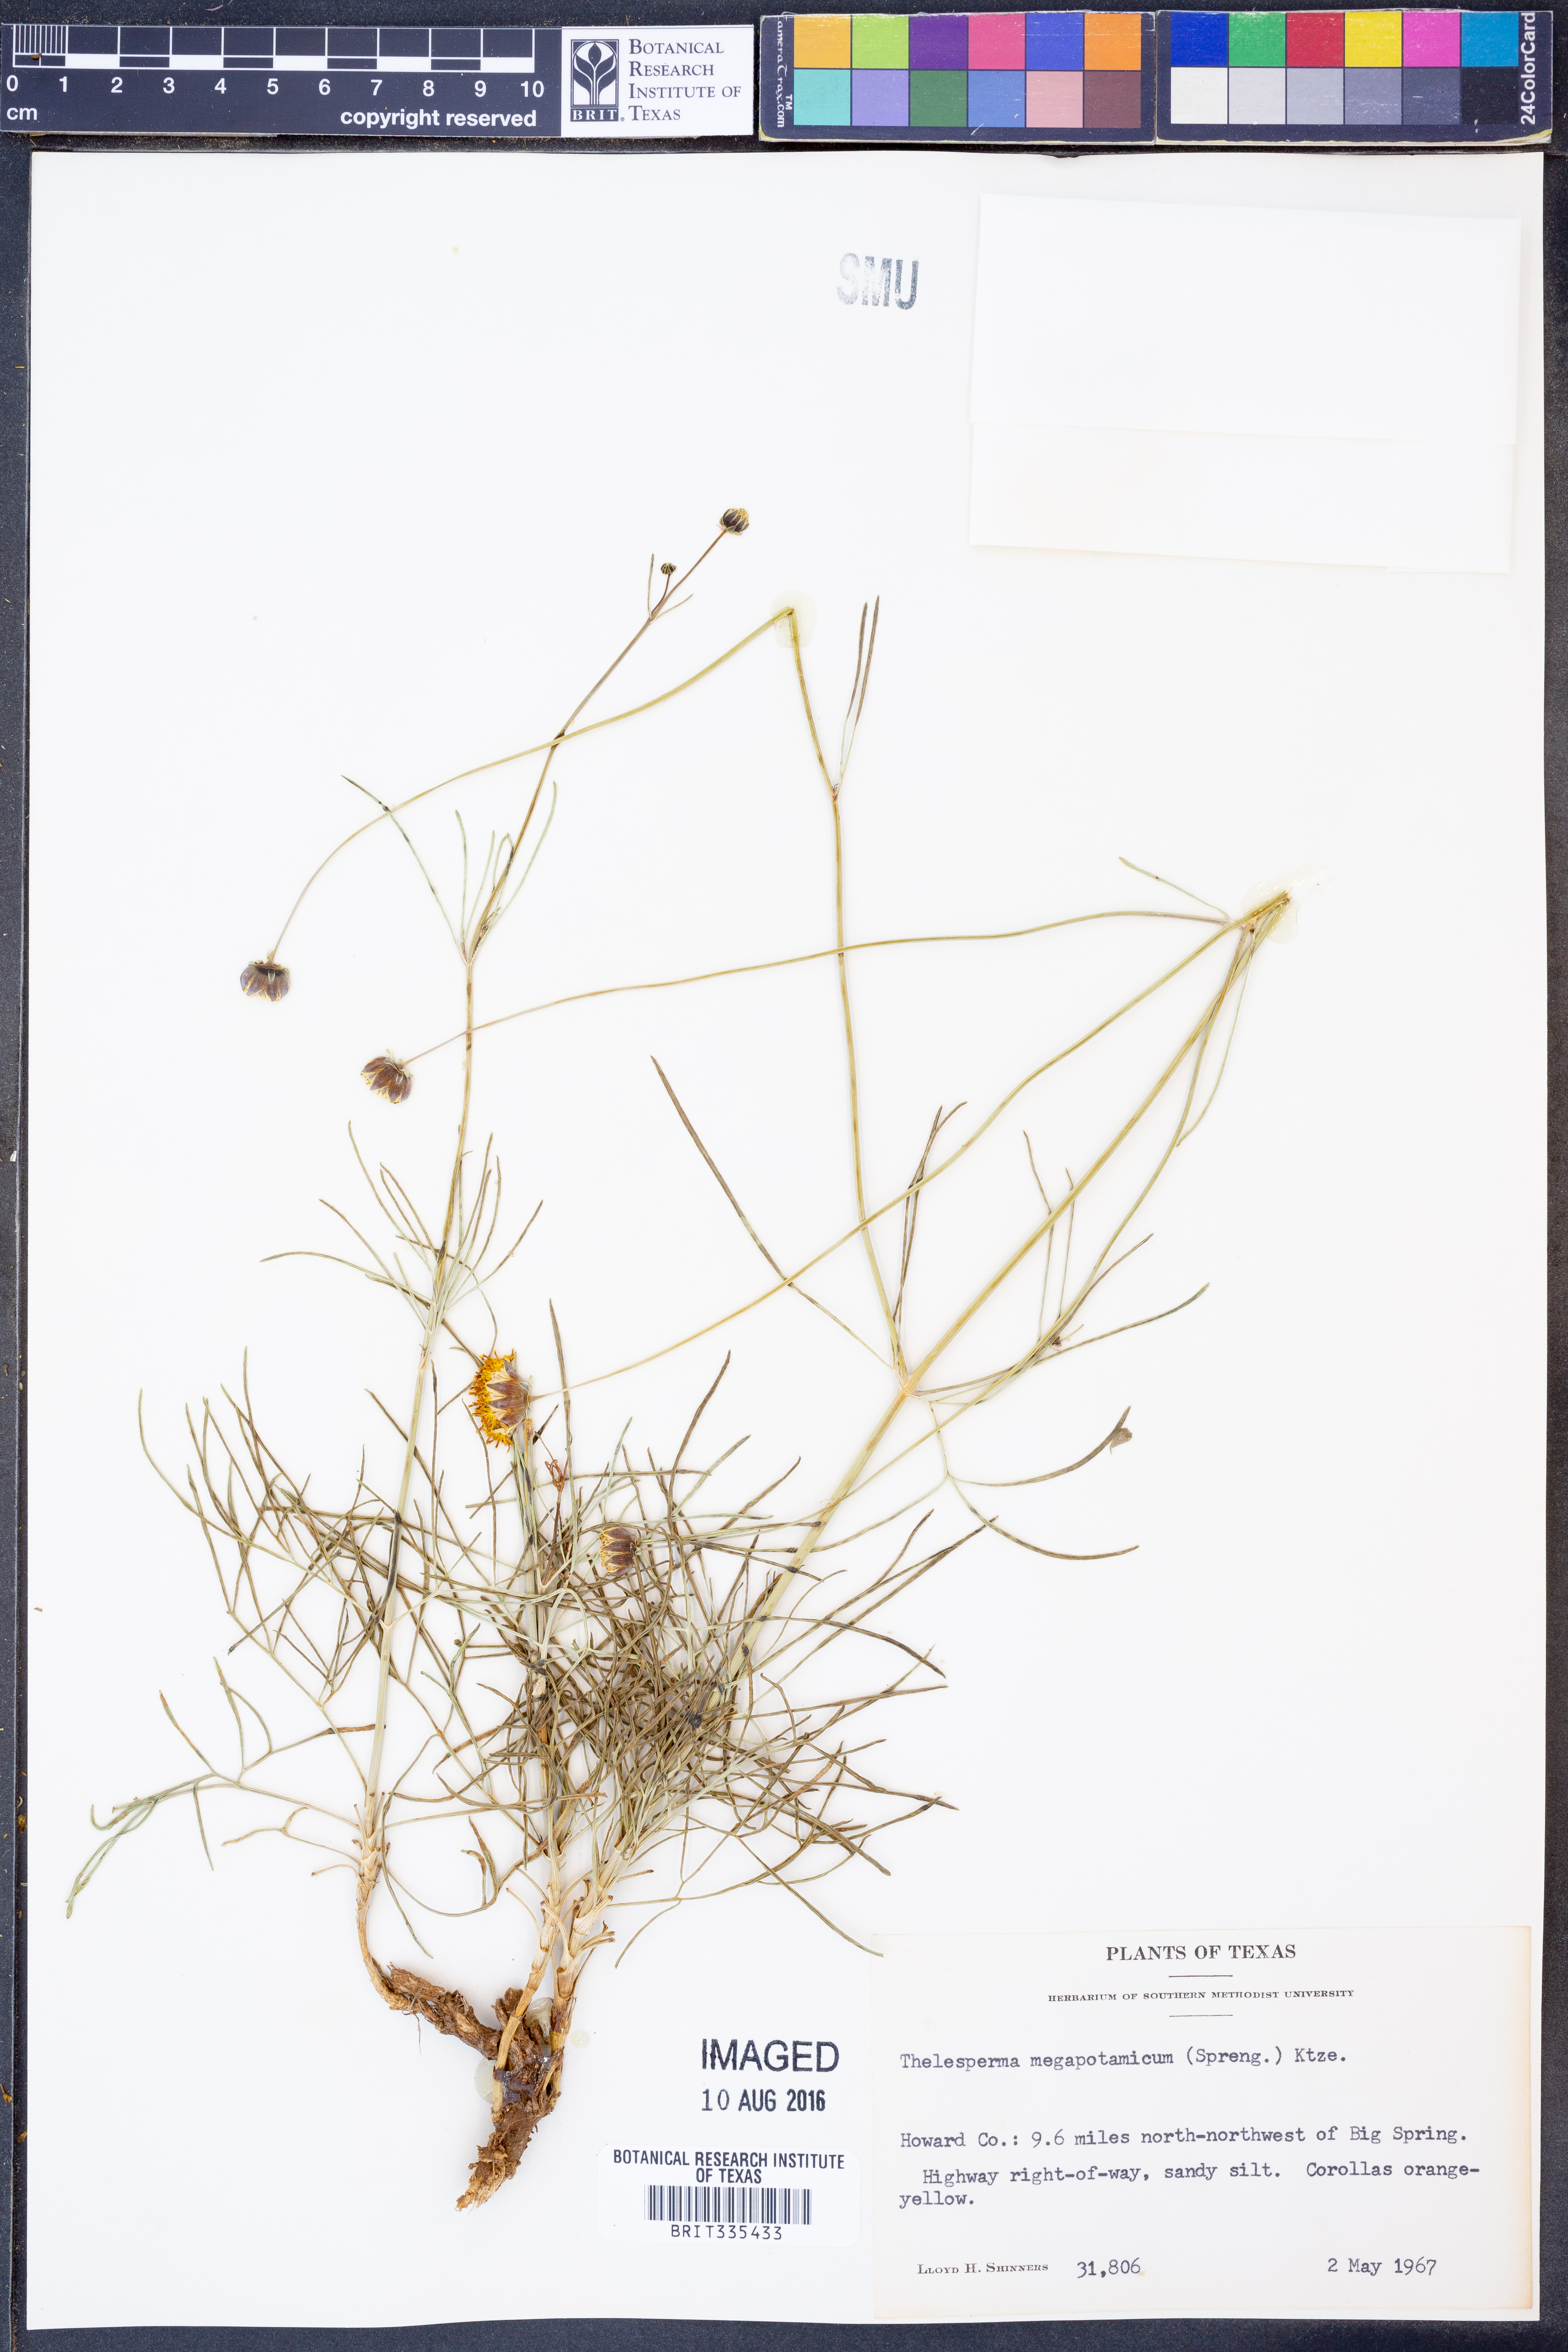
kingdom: Plantae
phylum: Tracheophyta
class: Magnoliopsida
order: Asterales
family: Asteraceae
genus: Thelesperma
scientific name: Thelesperma megapotamicum
